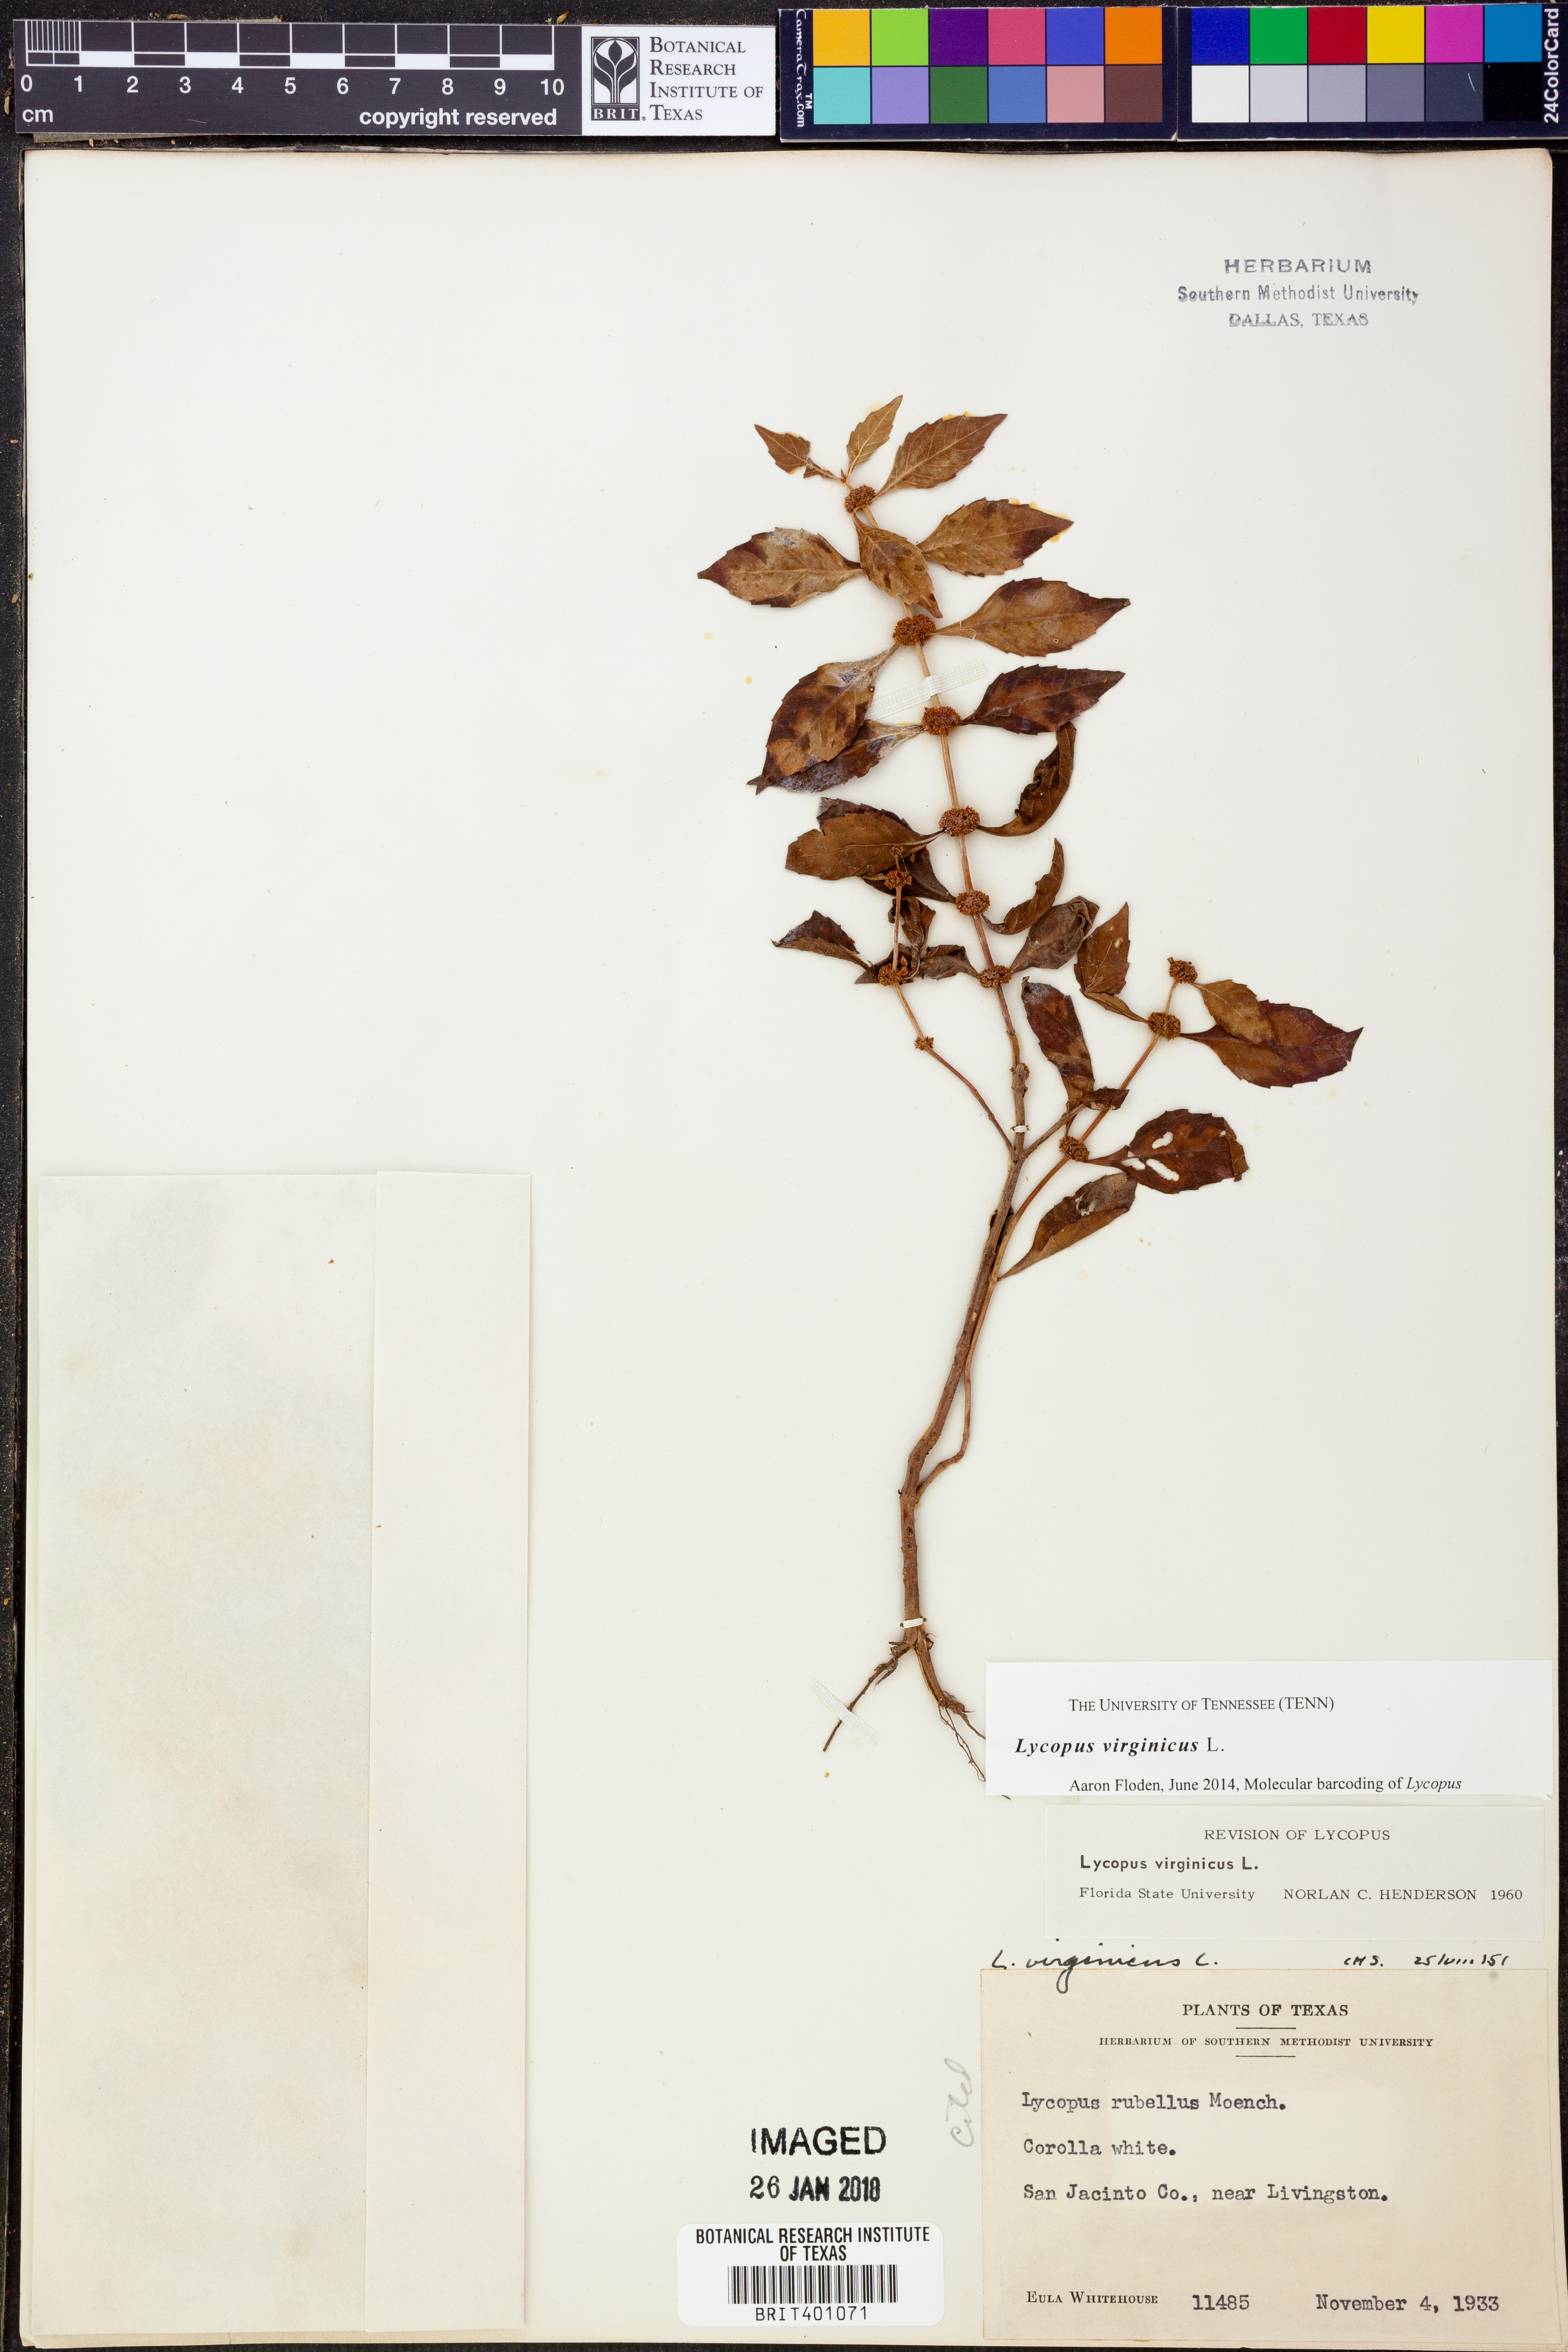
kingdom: Plantae
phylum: Tracheophyta
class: Magnoliopsida
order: Lamiales
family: Lamiaceae
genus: Lycopus
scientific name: Lycopus virginicus
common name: Bugleweed
